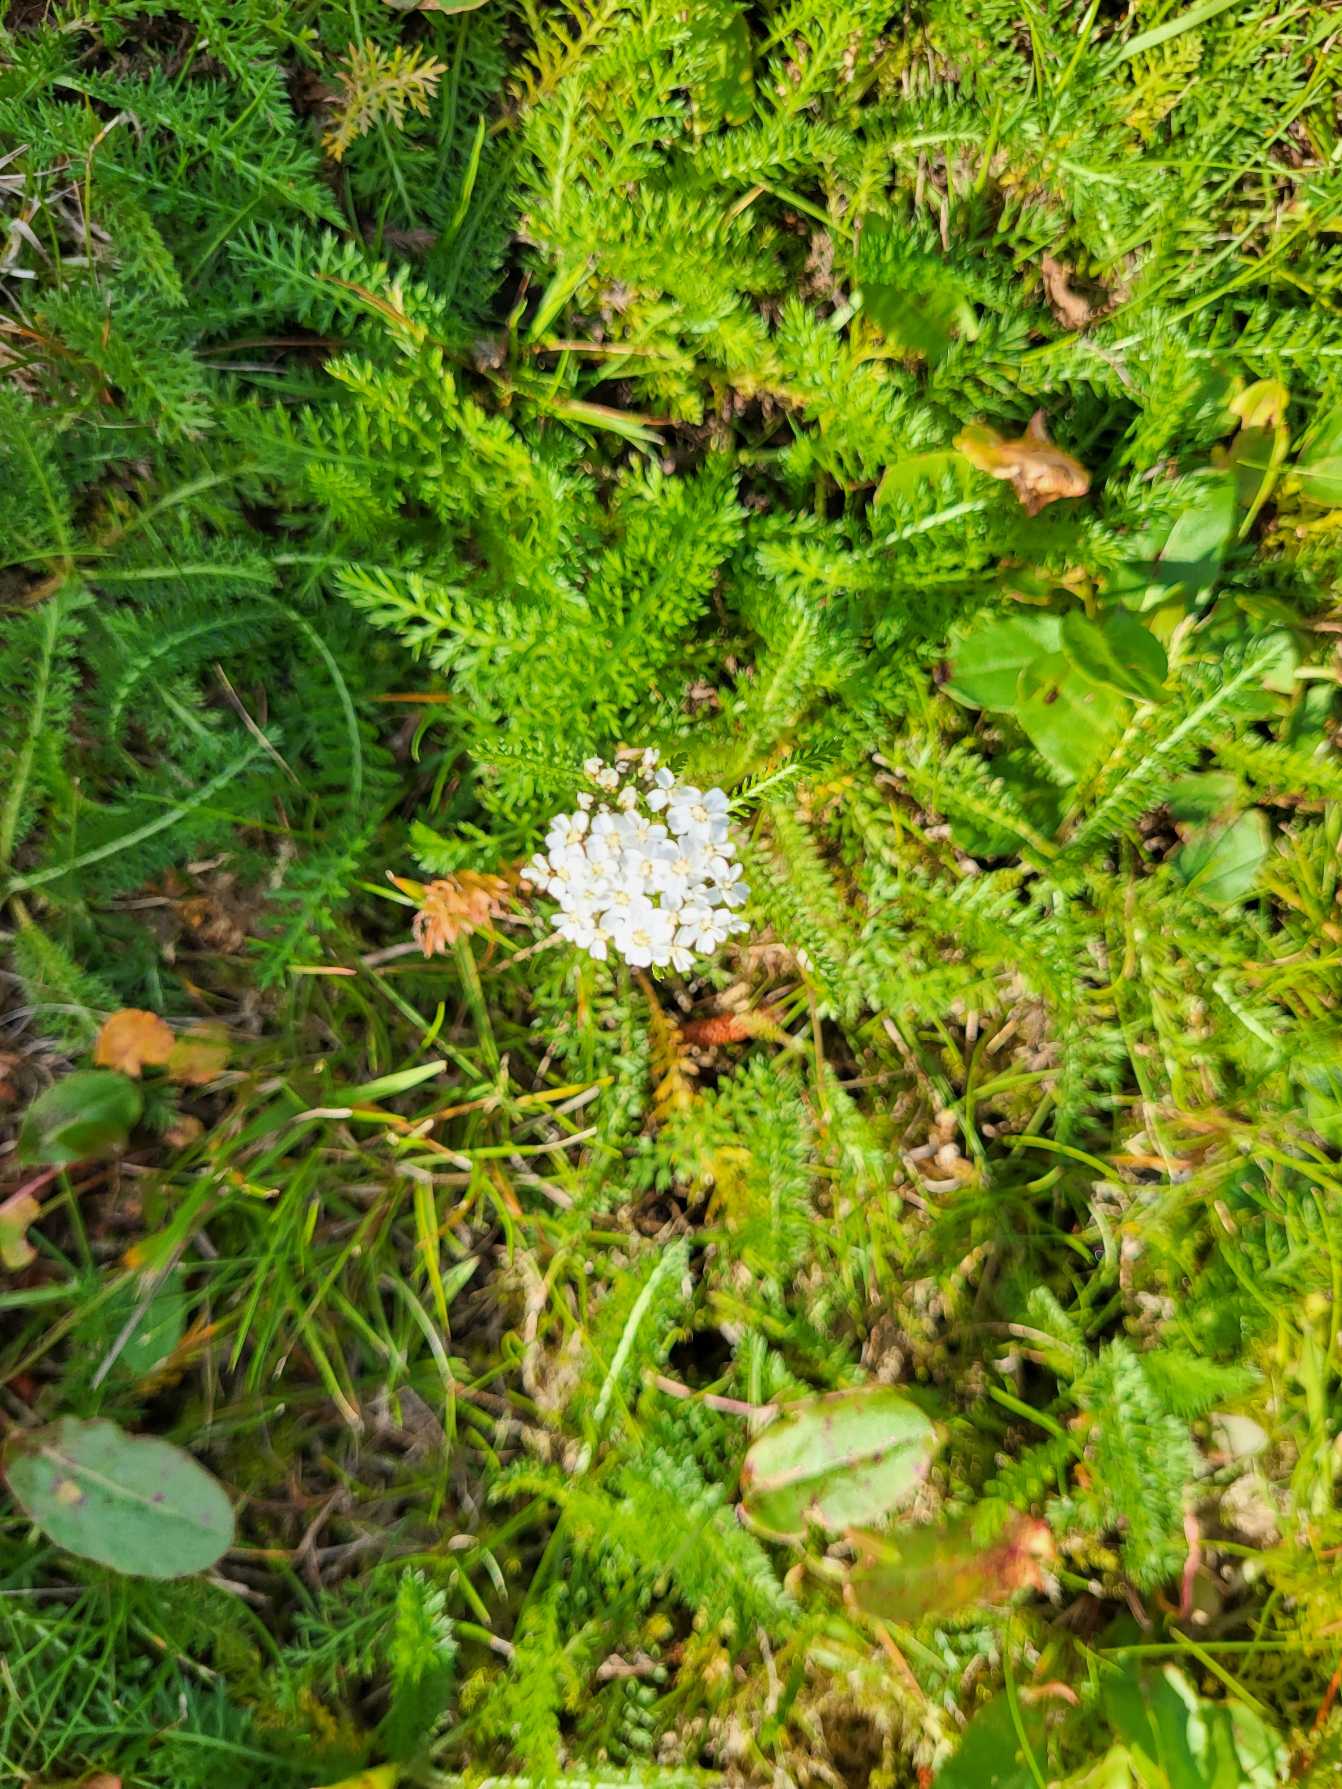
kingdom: Plantae
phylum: Tracheophyta
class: Magnoliopsida
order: Asterales
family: Asteraceae
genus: Achillea
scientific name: Achillea millefolium
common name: Almindelig røllike
